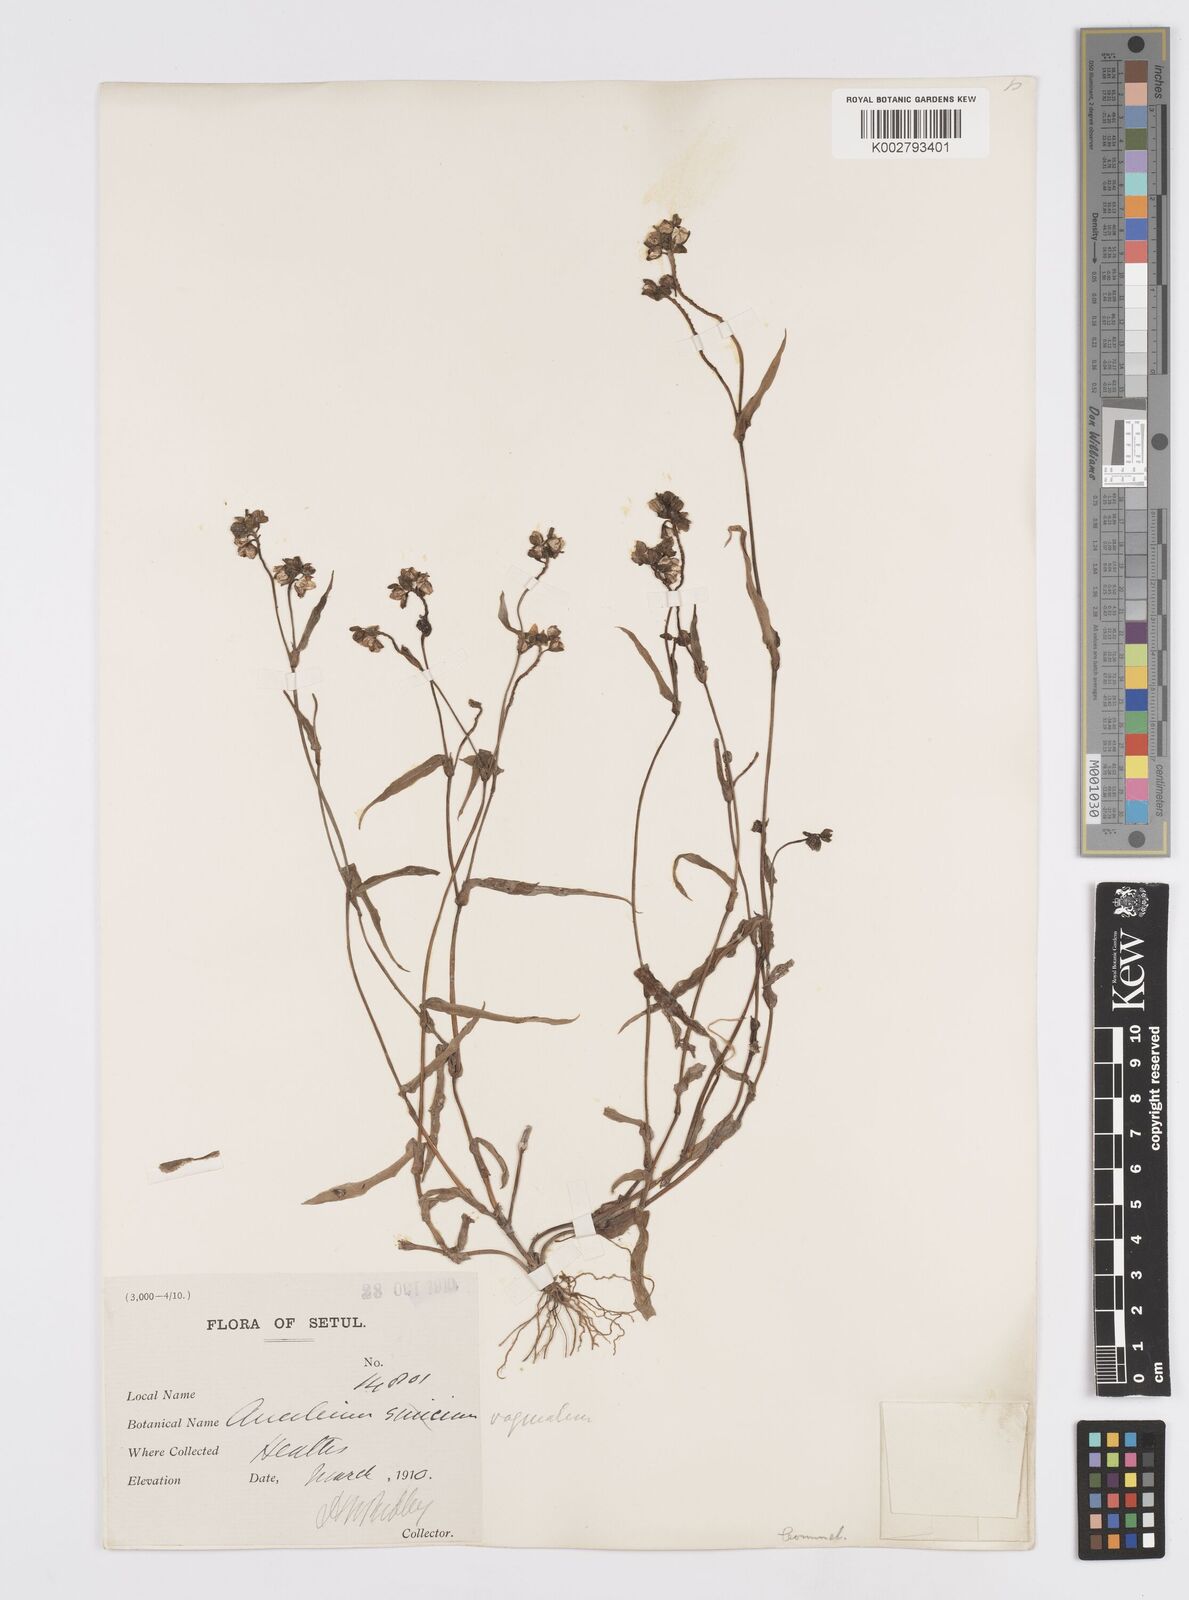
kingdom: Plantae
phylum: Tracheophyta
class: Liliopsida
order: Commelinales
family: Commelinaceae
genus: Murdannia
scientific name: Murdannia vaginata
